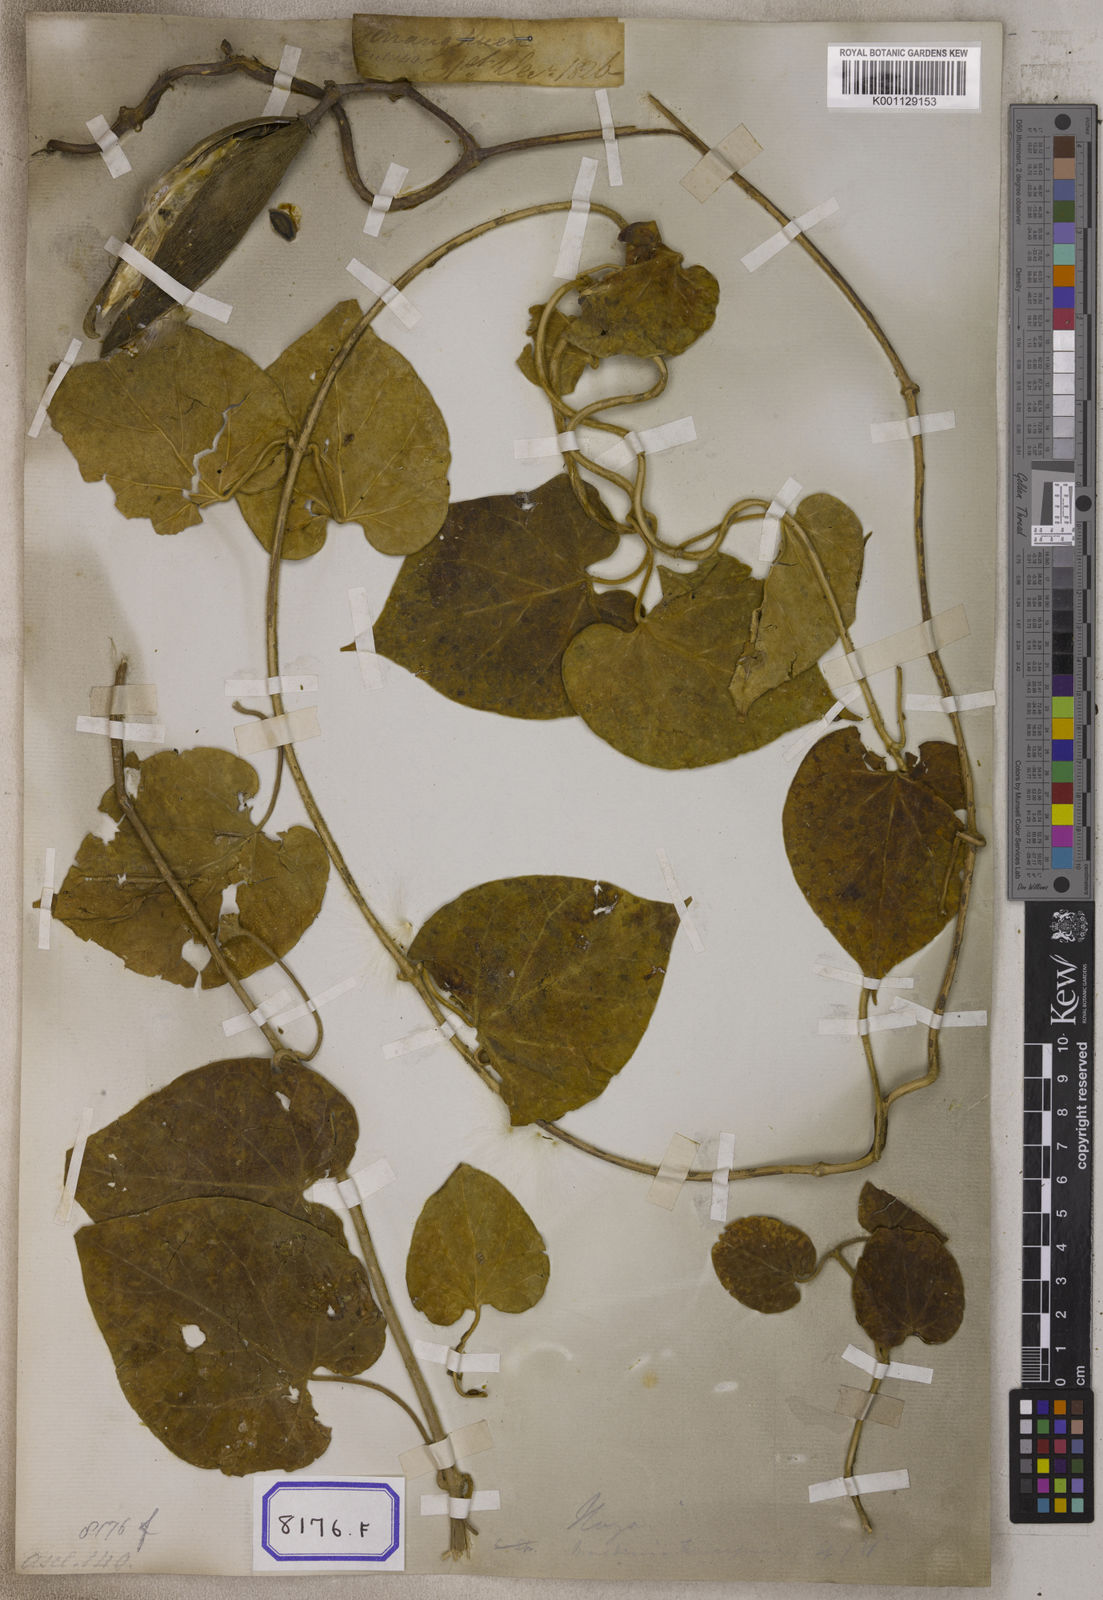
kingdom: Plantae
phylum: Tracheophyta
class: Magnoliopsida
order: Gentianales
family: Apocynaceae
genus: Marsdenia
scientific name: Marsdenia
